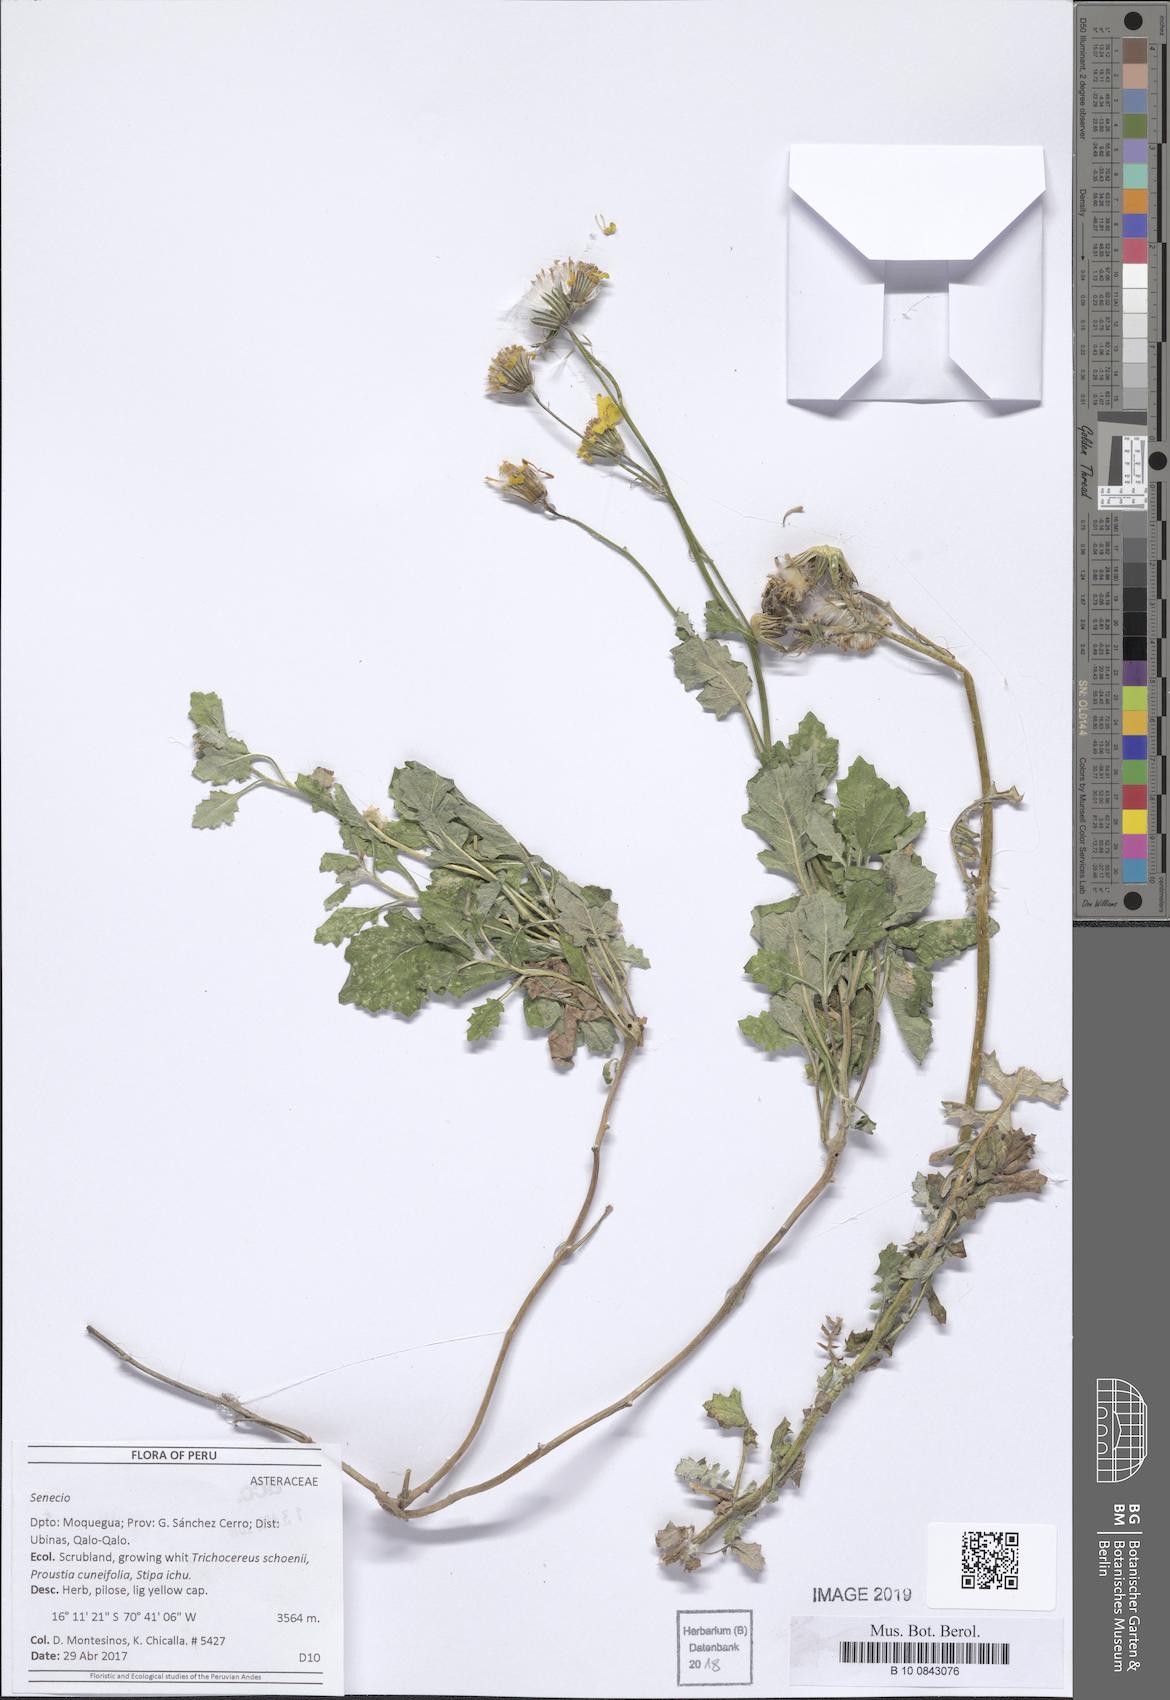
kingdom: Plantae
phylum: Tracheophyta
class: Magnoliopsida
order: Asterales
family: Asteraceae
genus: Lomanthus
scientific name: Lomanthus arnaldii
